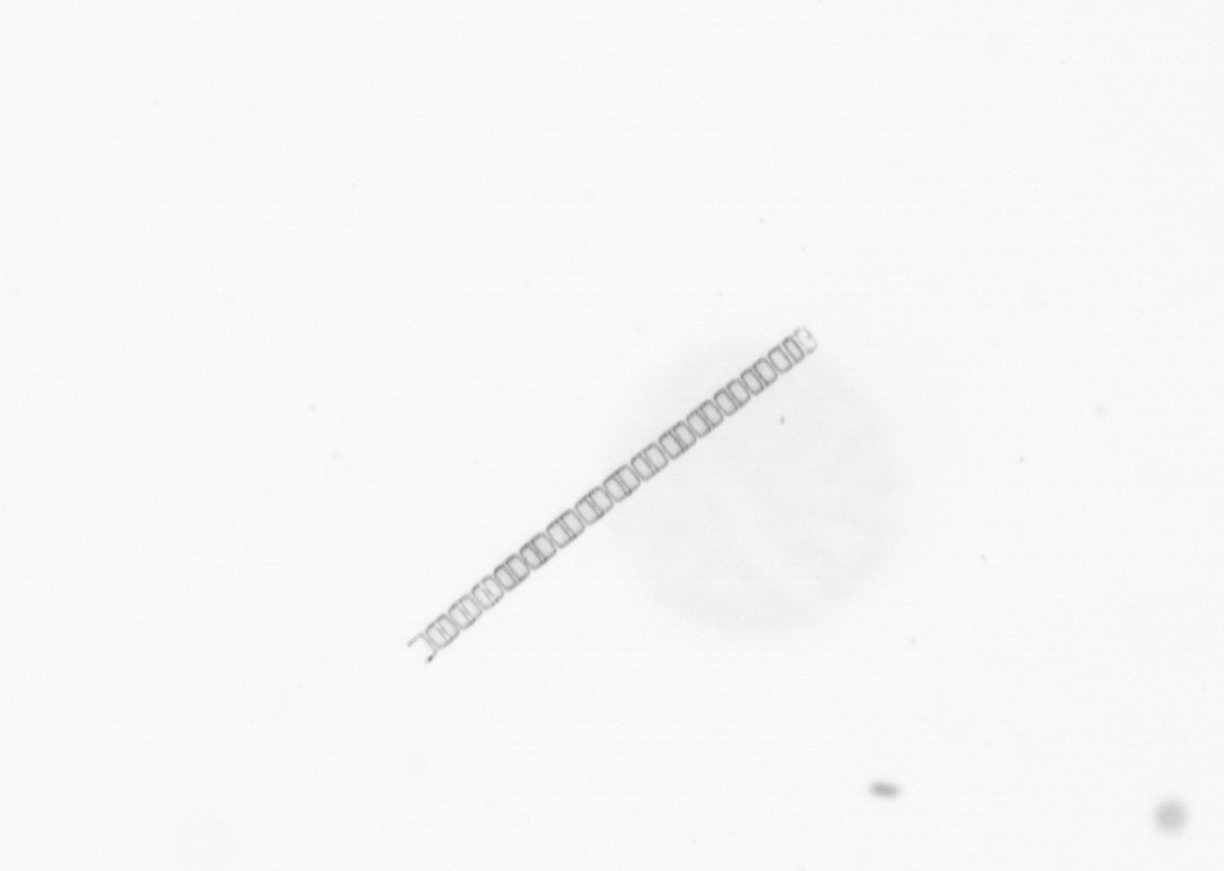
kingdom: Chromista
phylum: Ochrophyta
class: Bacillariophyceae
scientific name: Bacillariophyceae
